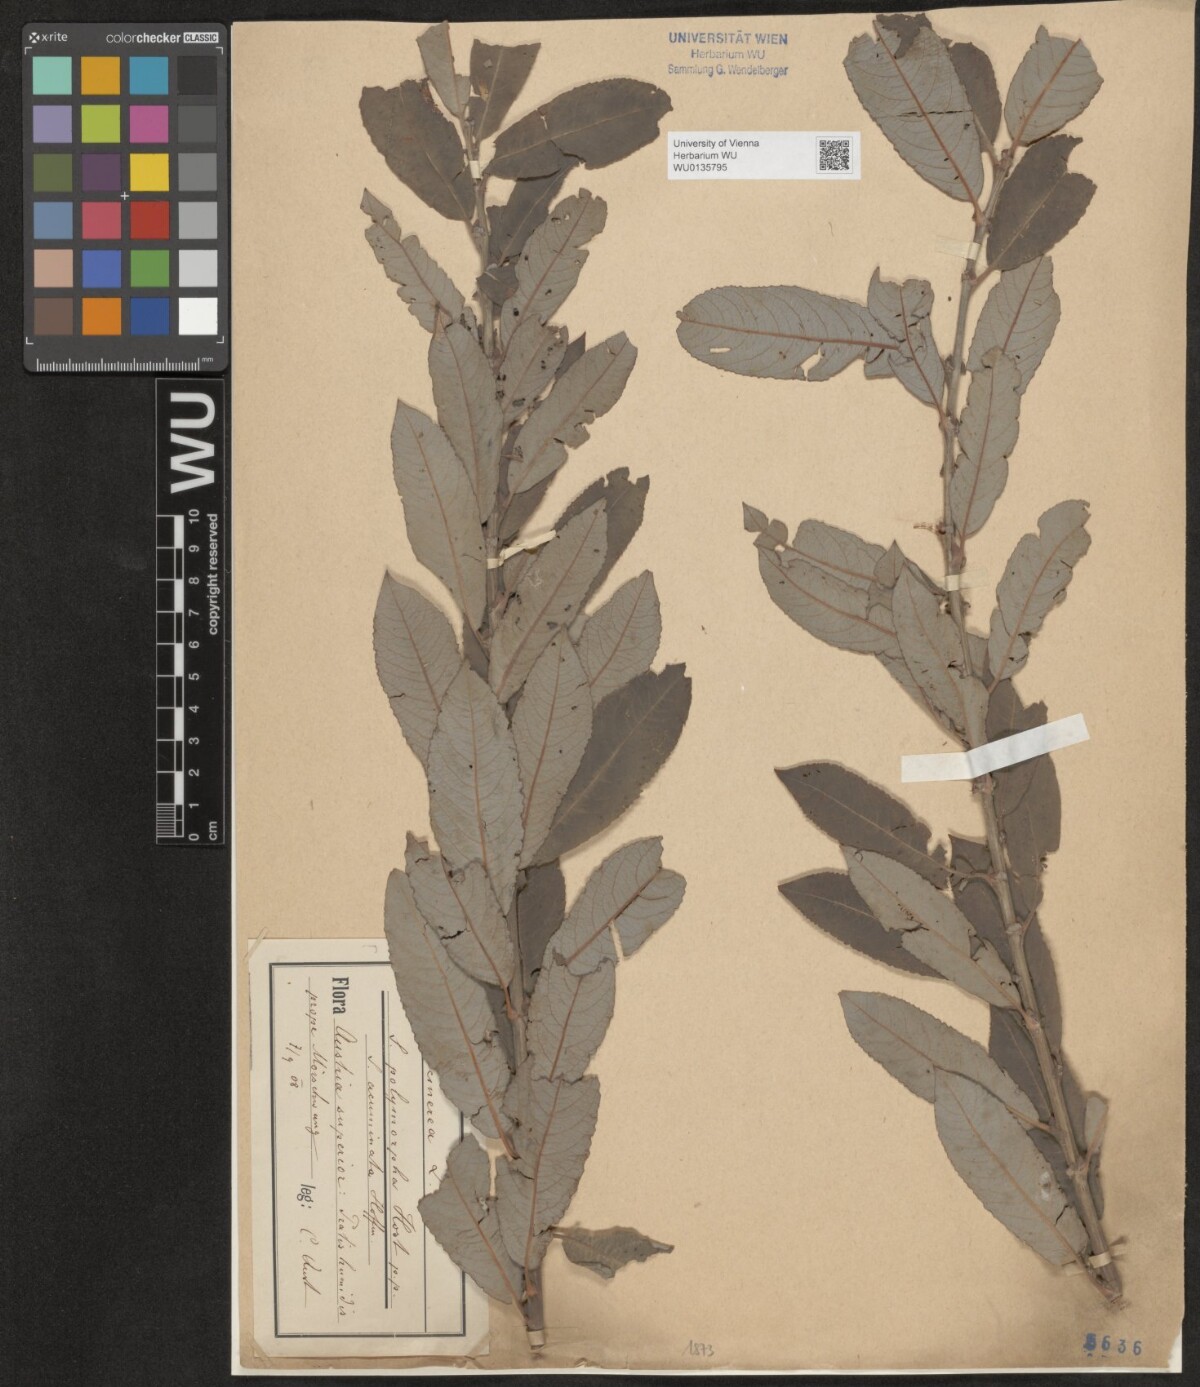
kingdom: Plantae
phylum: Tracheophyta
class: Magnoliopsida
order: Malpighiales
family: Salicaceae
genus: Salix
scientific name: Salix cinerea
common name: Common sallow
